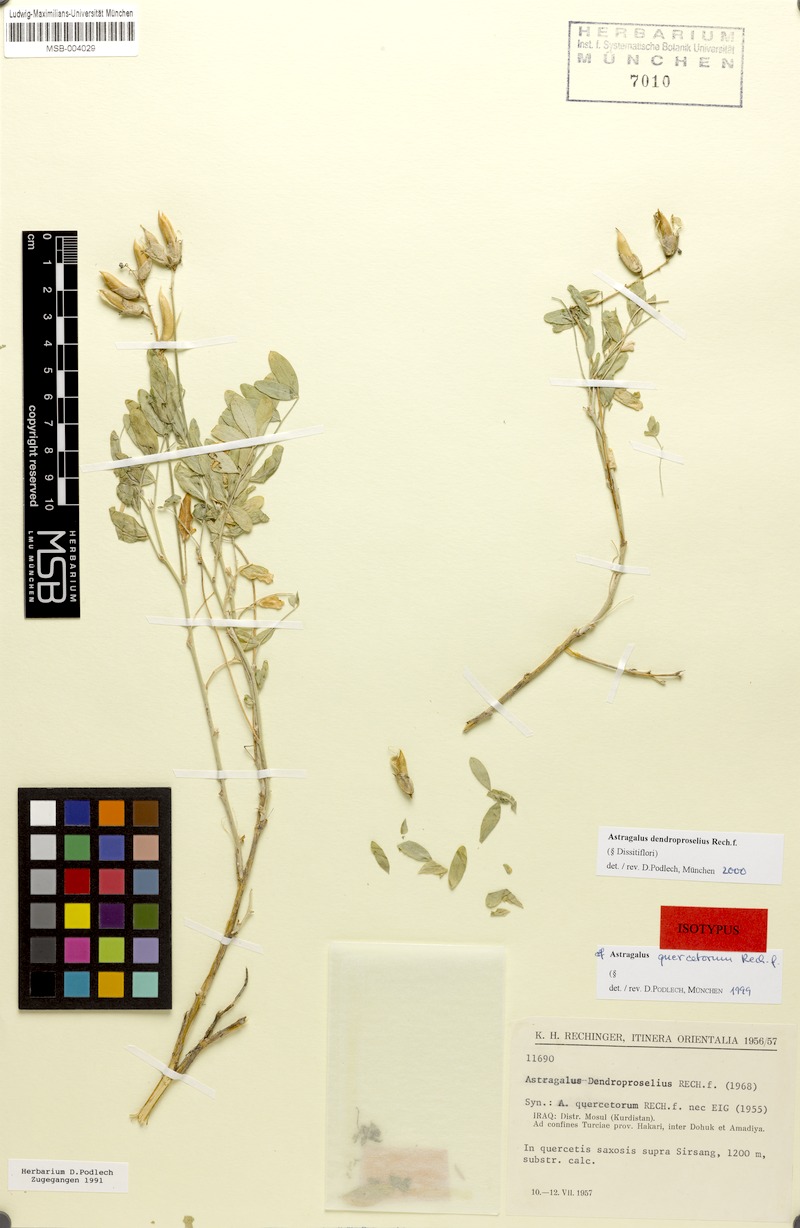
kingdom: Plantae
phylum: Tracheophyta
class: Magnoliopsida
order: Fabales
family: Fabaceae
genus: Astragalus
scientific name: Astragalus dendroproselius
